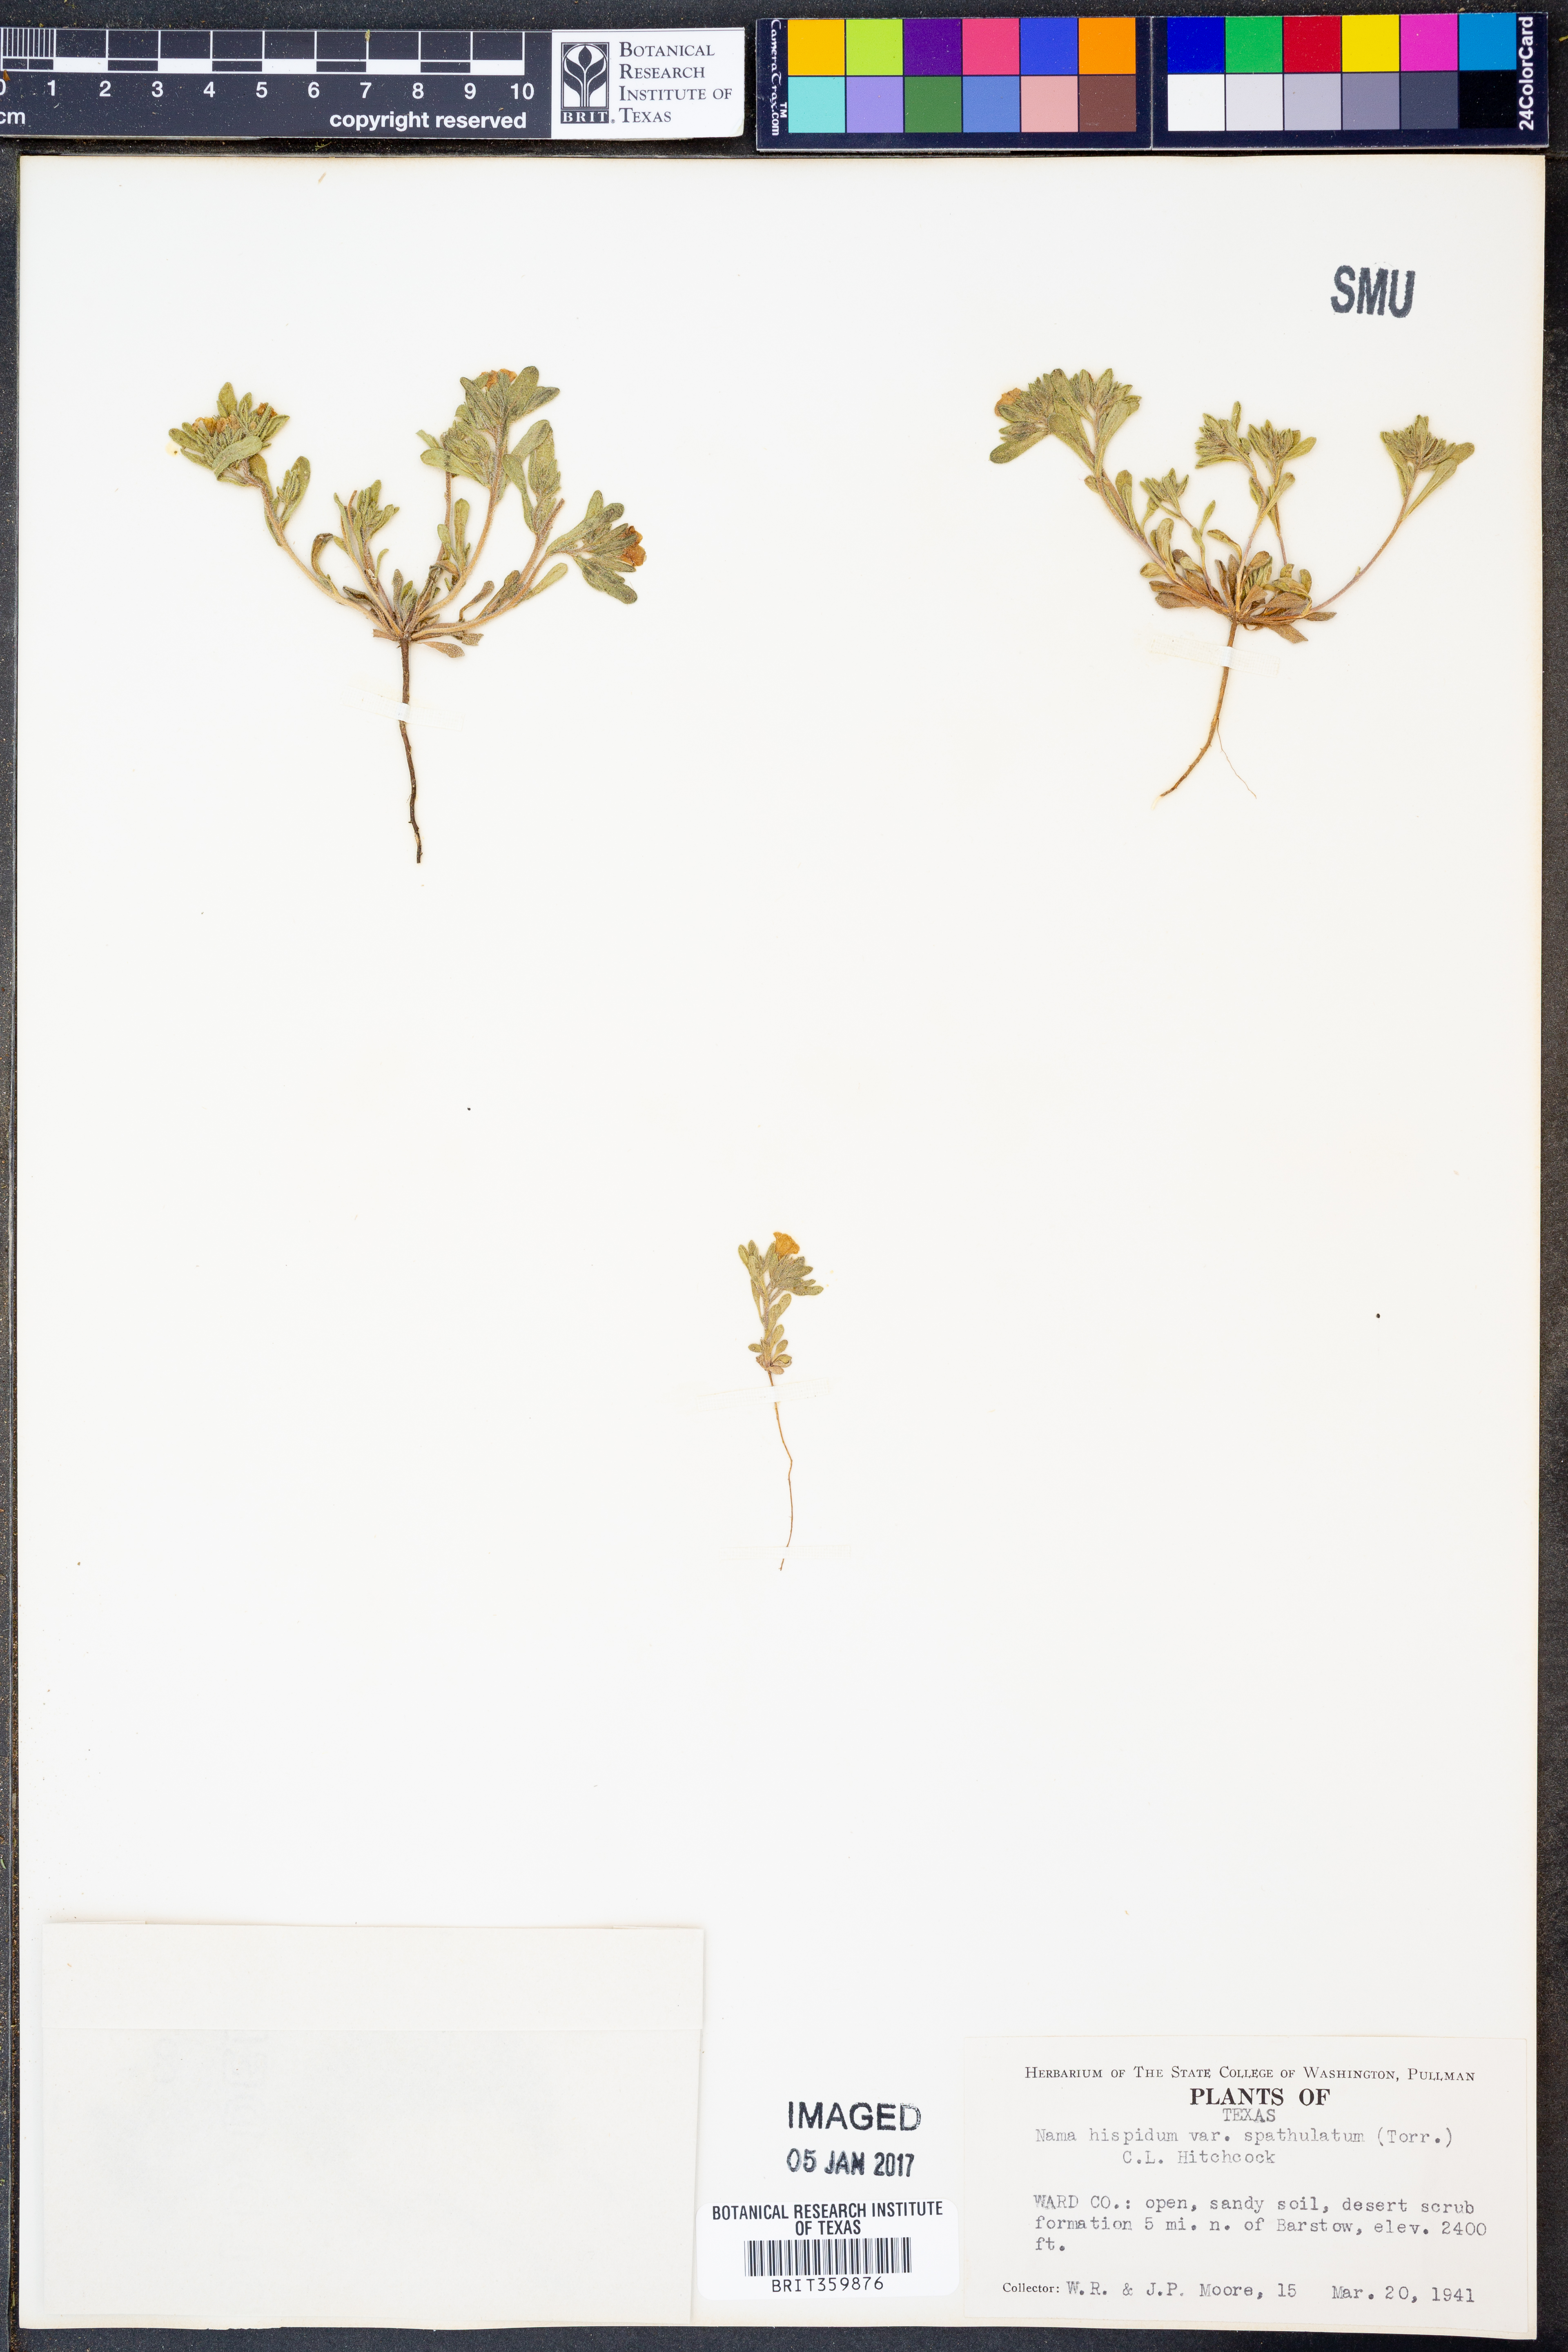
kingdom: Plantae
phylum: Tracheophyta
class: Magnoliopsida
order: Boraginales
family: Namaceae
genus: Nama
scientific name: Nama hispida
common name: Bristly nama
